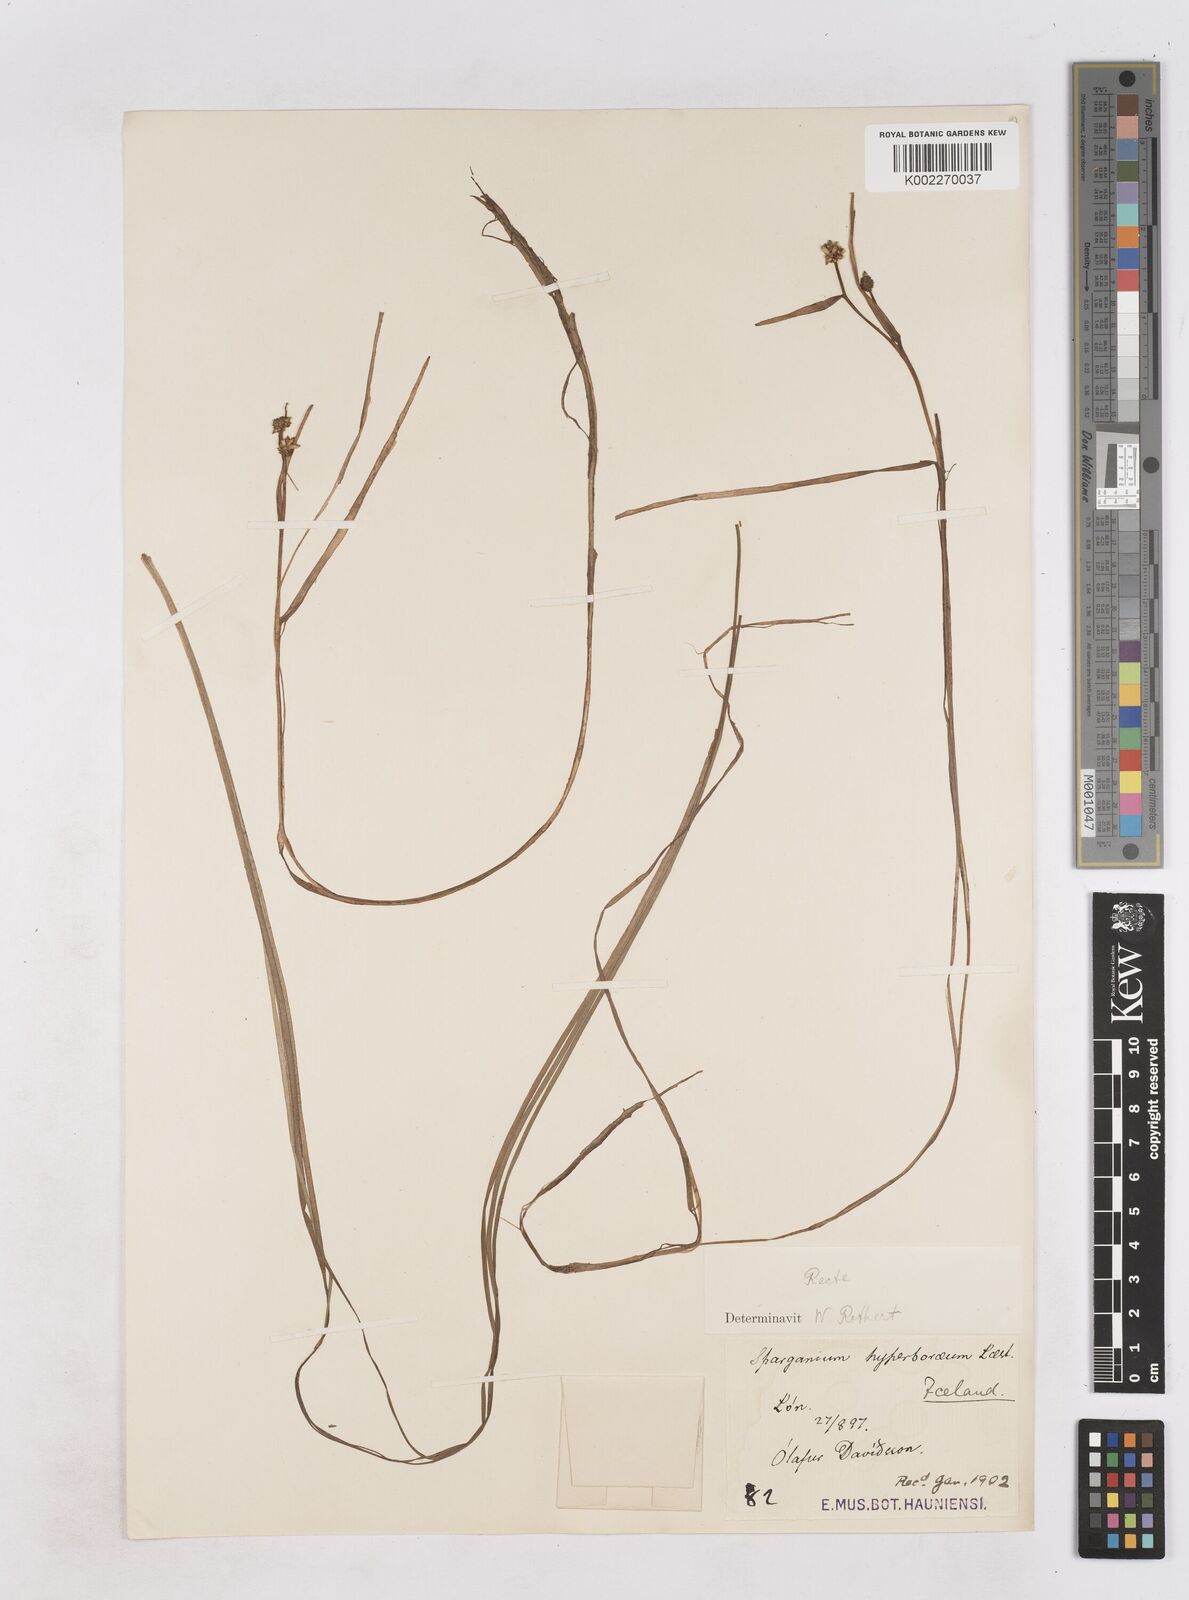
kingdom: Plantae
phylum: Tracheophyta
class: Liliopsida
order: Poales
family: Typhaceae
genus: Sparganium
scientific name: Sparganium hyperboreum
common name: Arctic burreed
